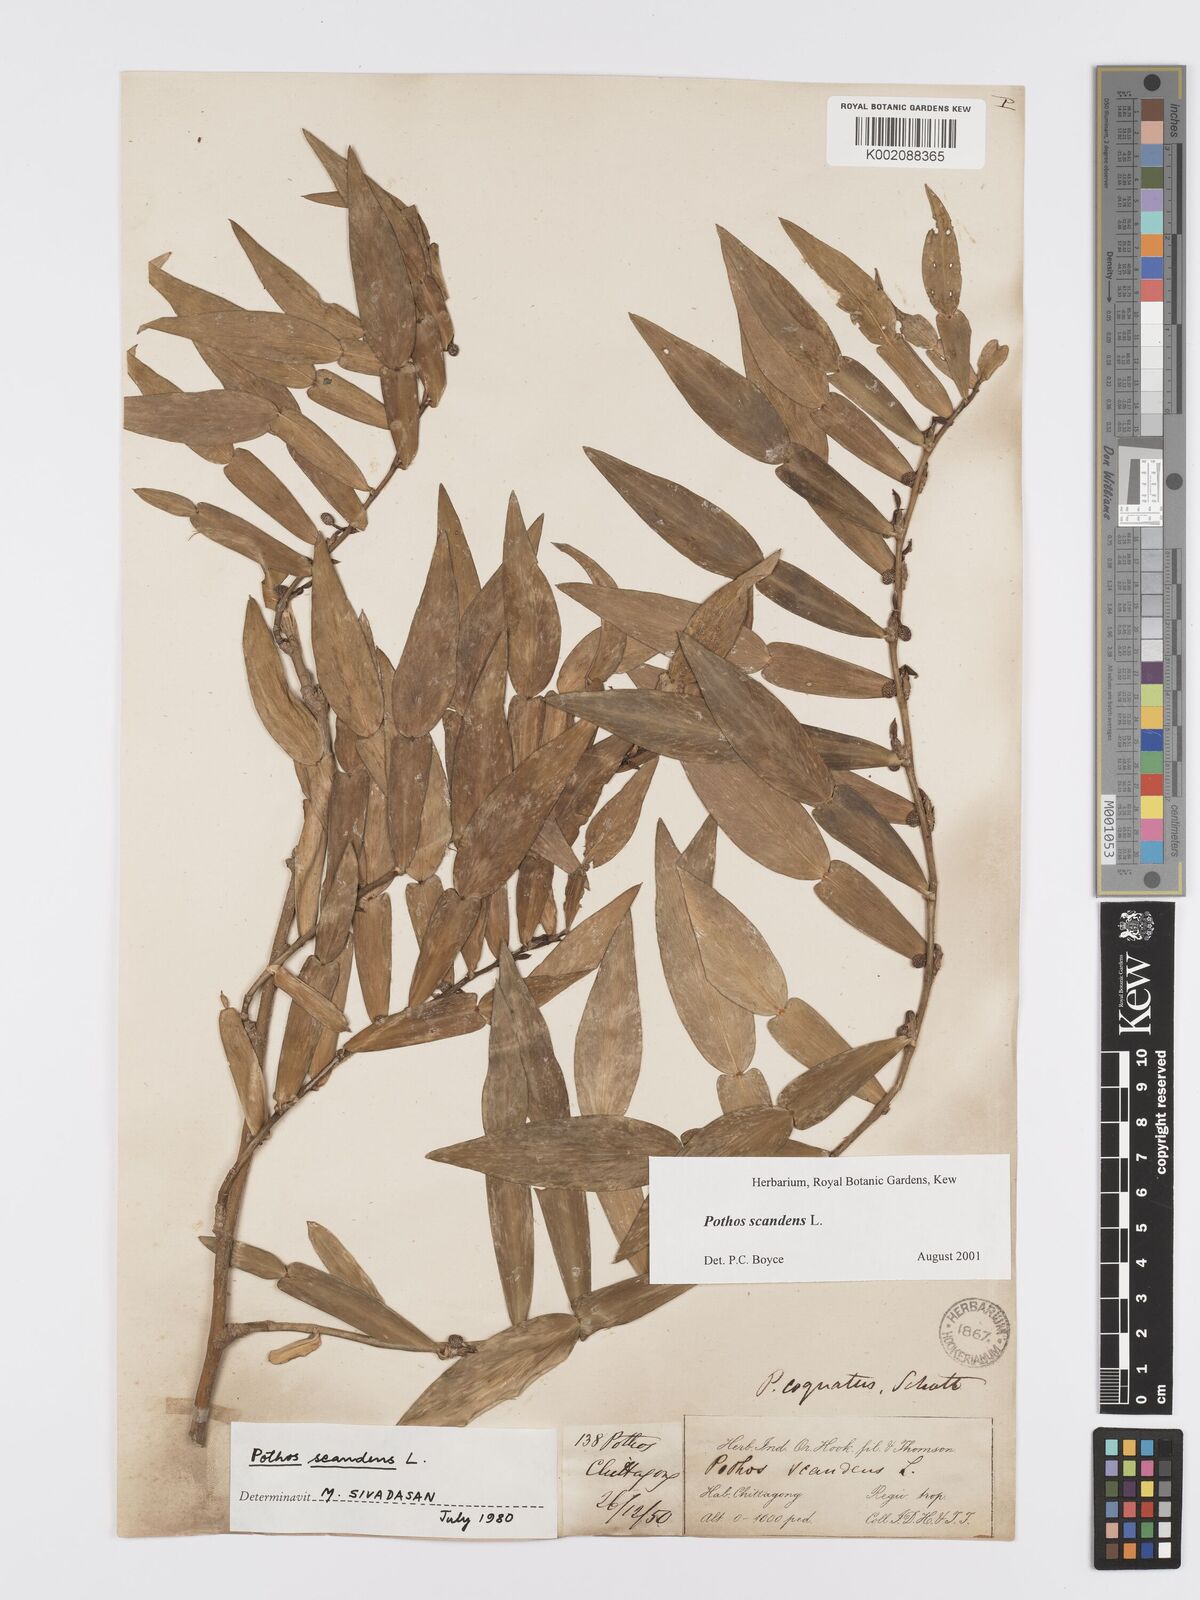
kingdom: Plantae
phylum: Tracheophyta
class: Liliopsida
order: Alismatales
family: Araceae
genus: Pothos
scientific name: Pothos scandens
